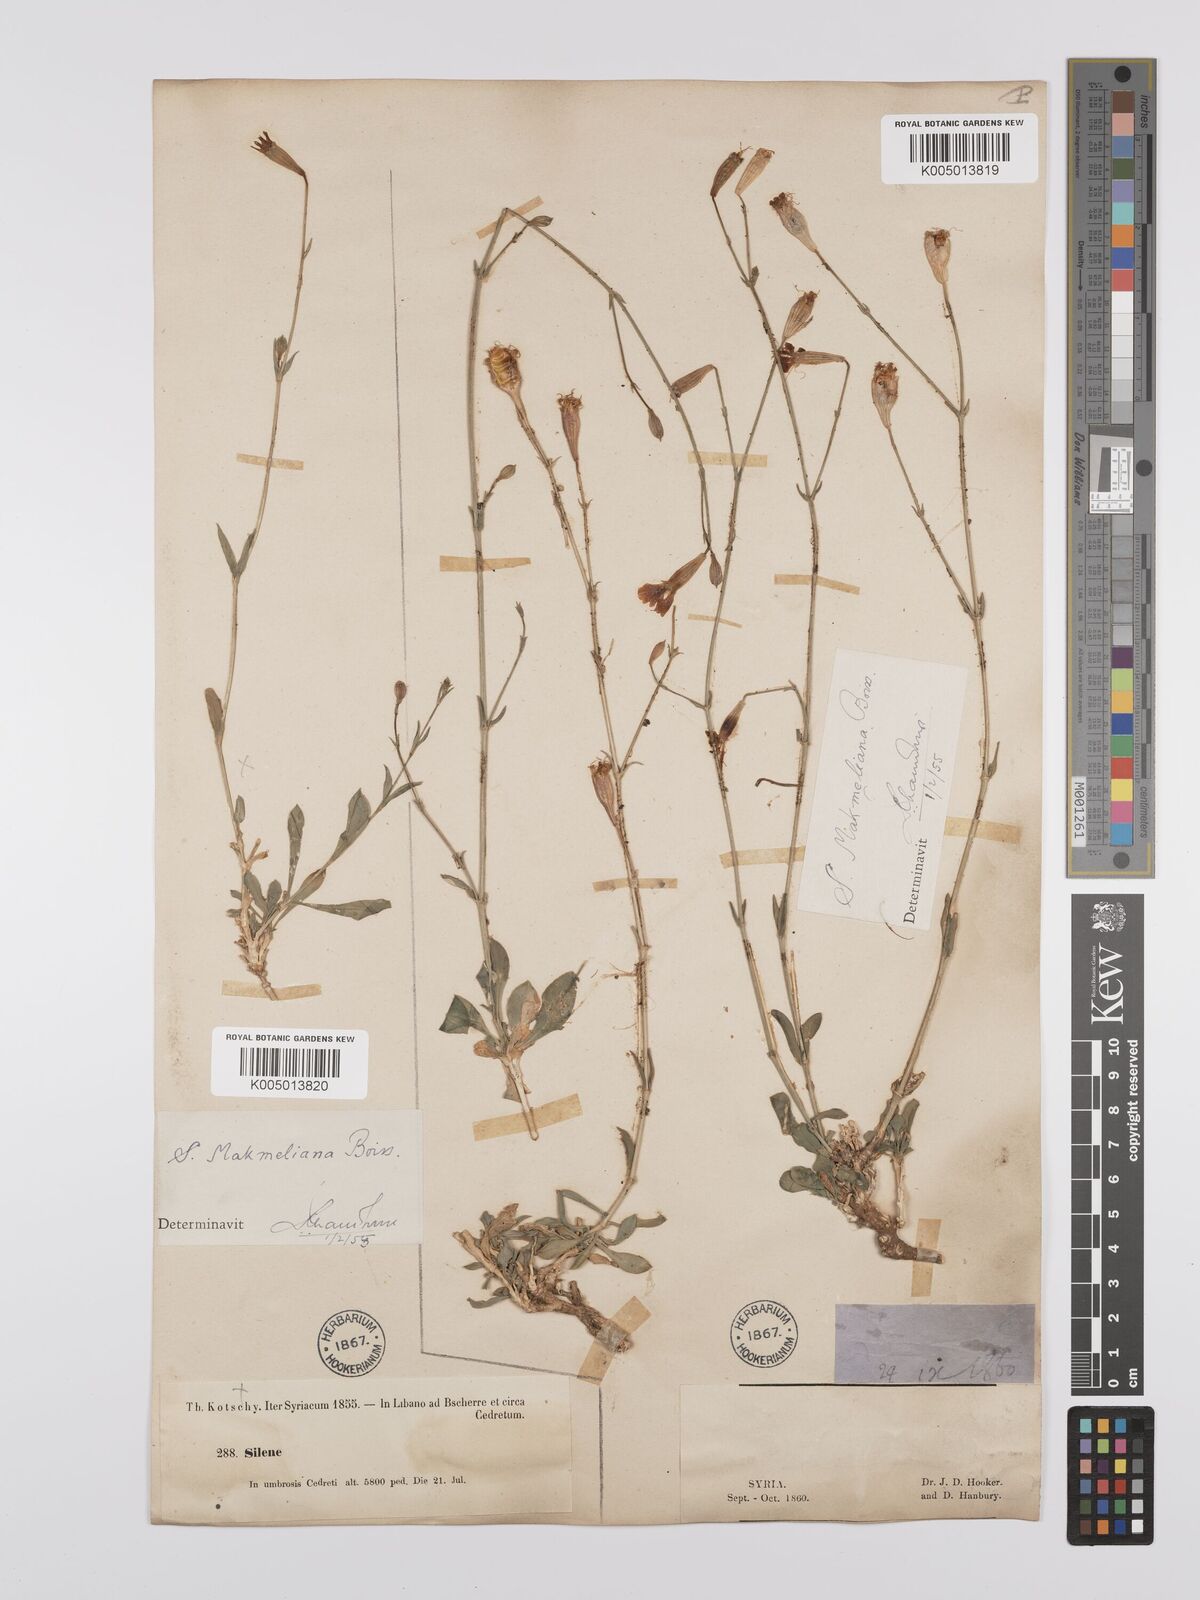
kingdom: Plantae
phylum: Tracheophyta
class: Magnoliopsida
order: Caryophyllales
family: Caryophyllaceae
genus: Silene
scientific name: Silene libanotica
